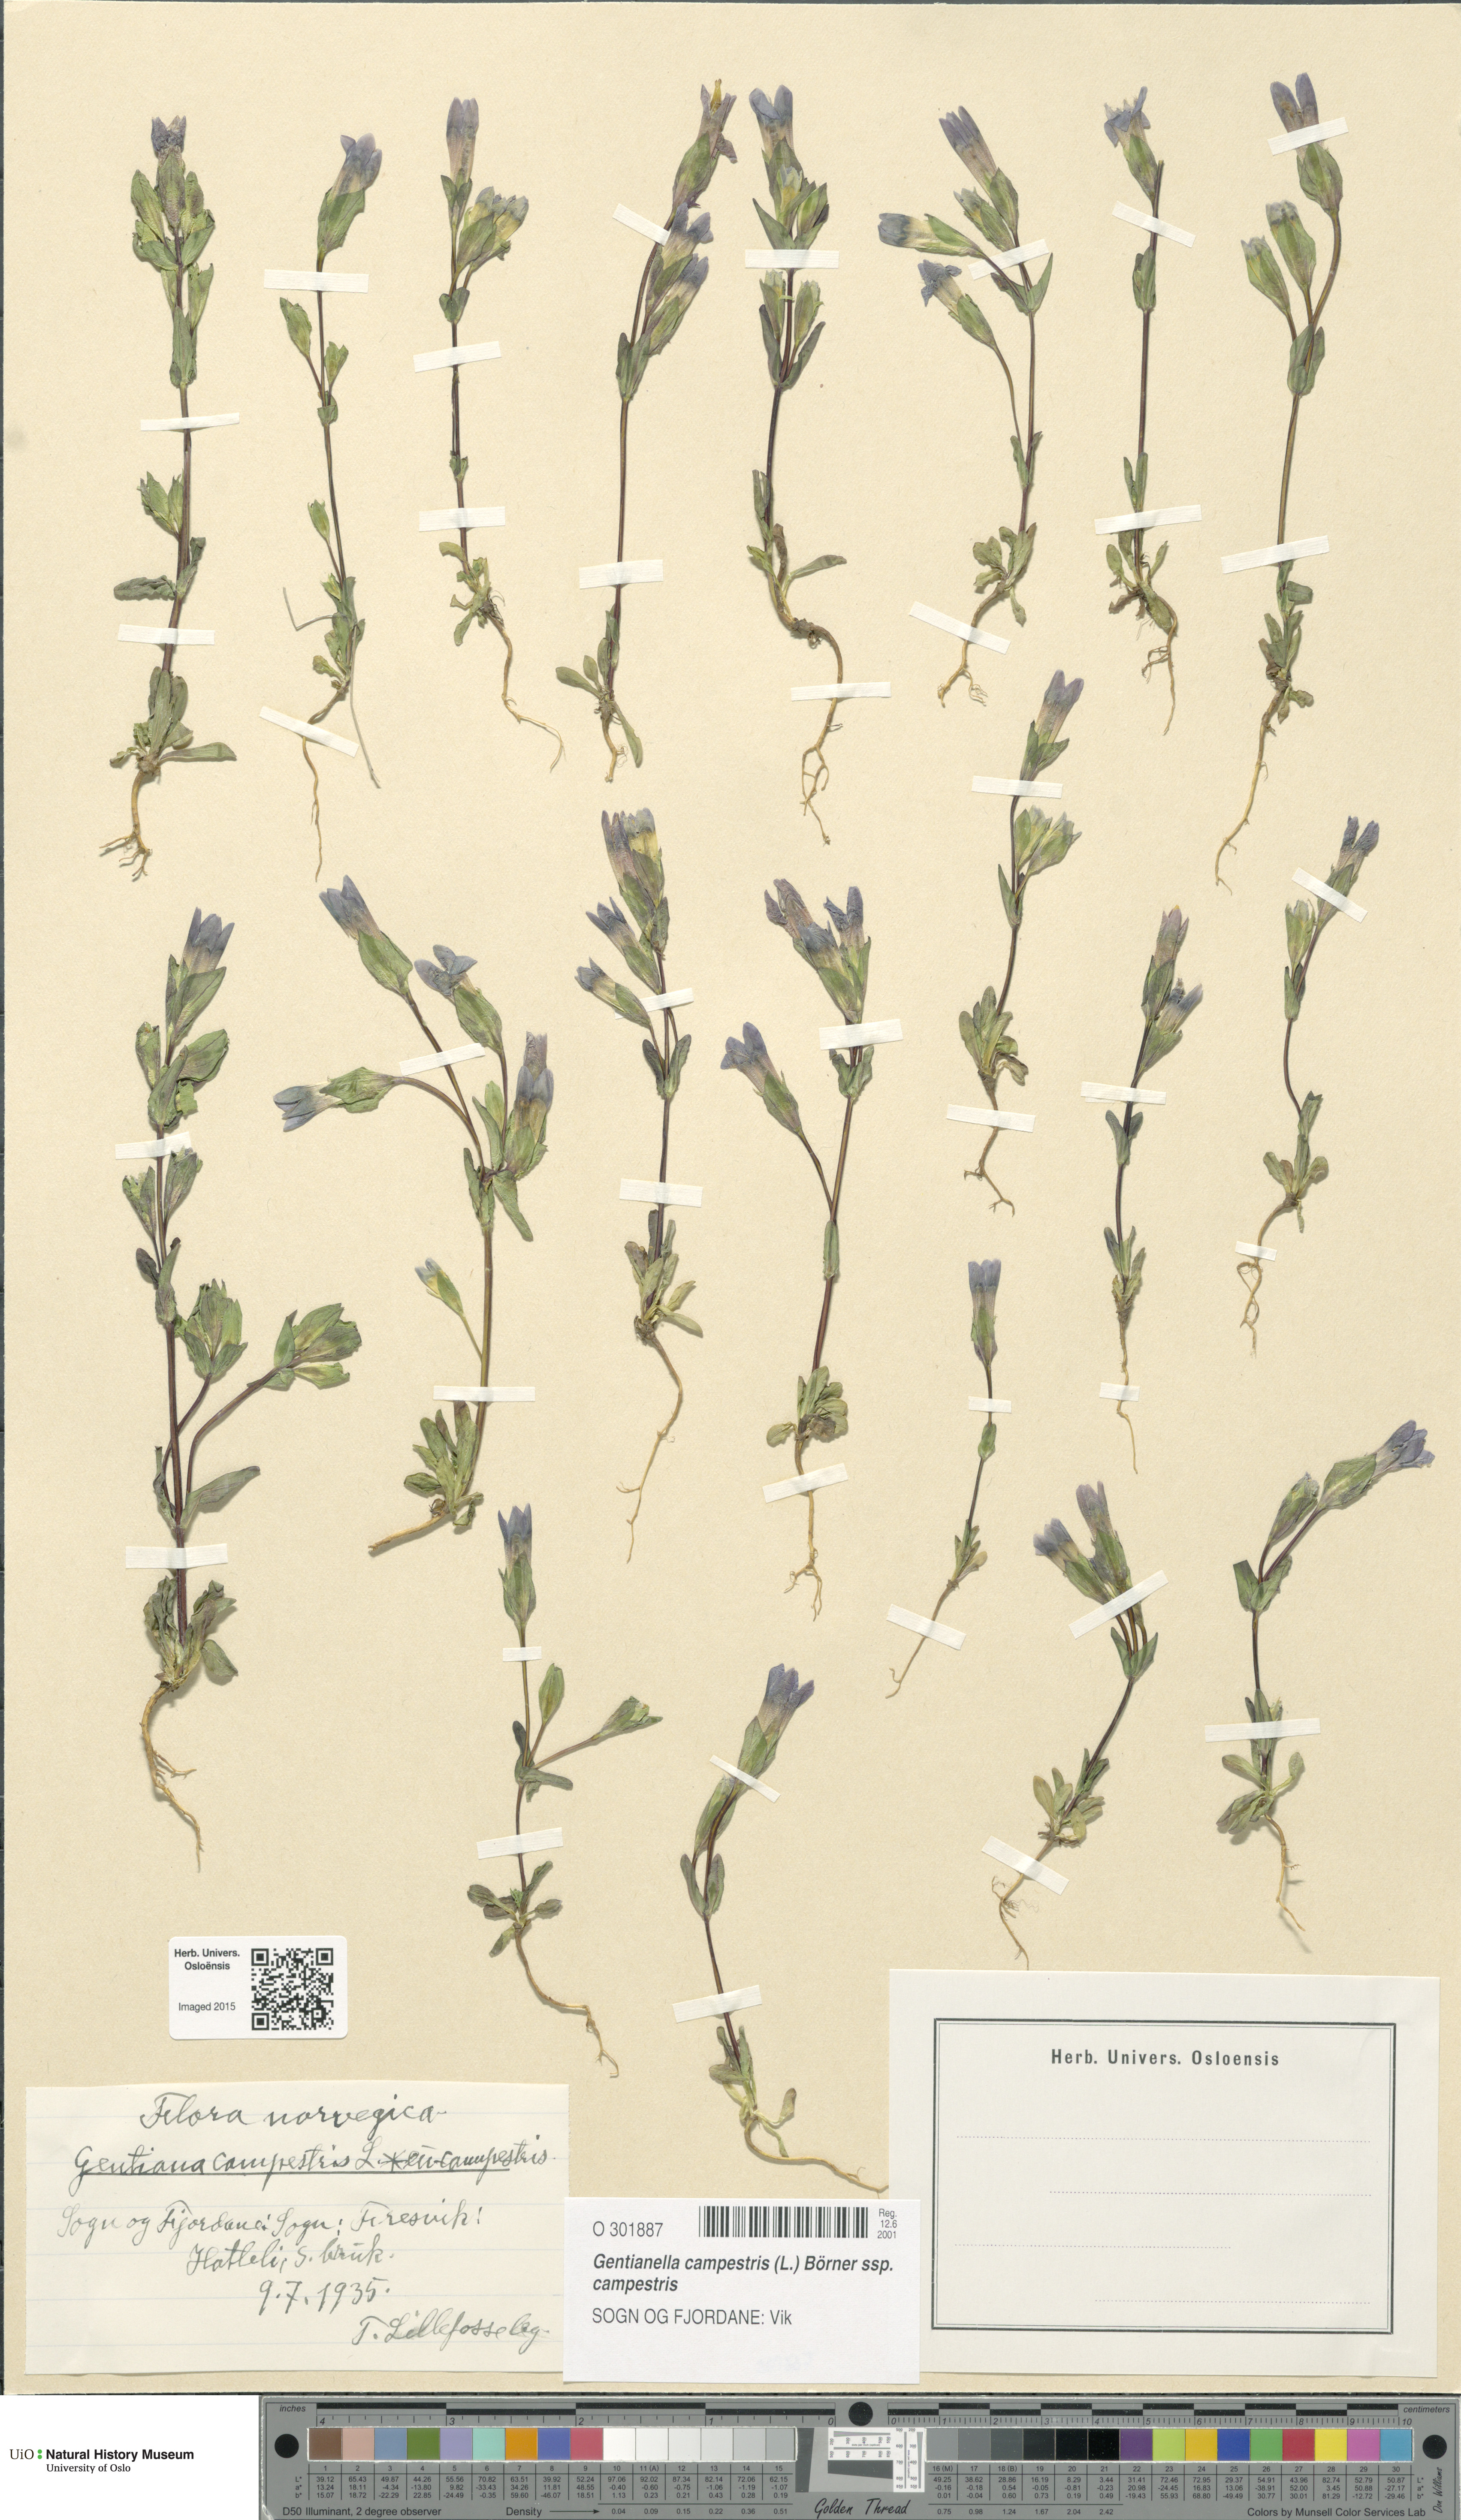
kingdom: Plantae
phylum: Tracheophyta
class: Magnoliopsida
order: Gentianales
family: Gentianaceae
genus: Gentianella
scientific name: Gentianella campestris
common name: Field gentian
